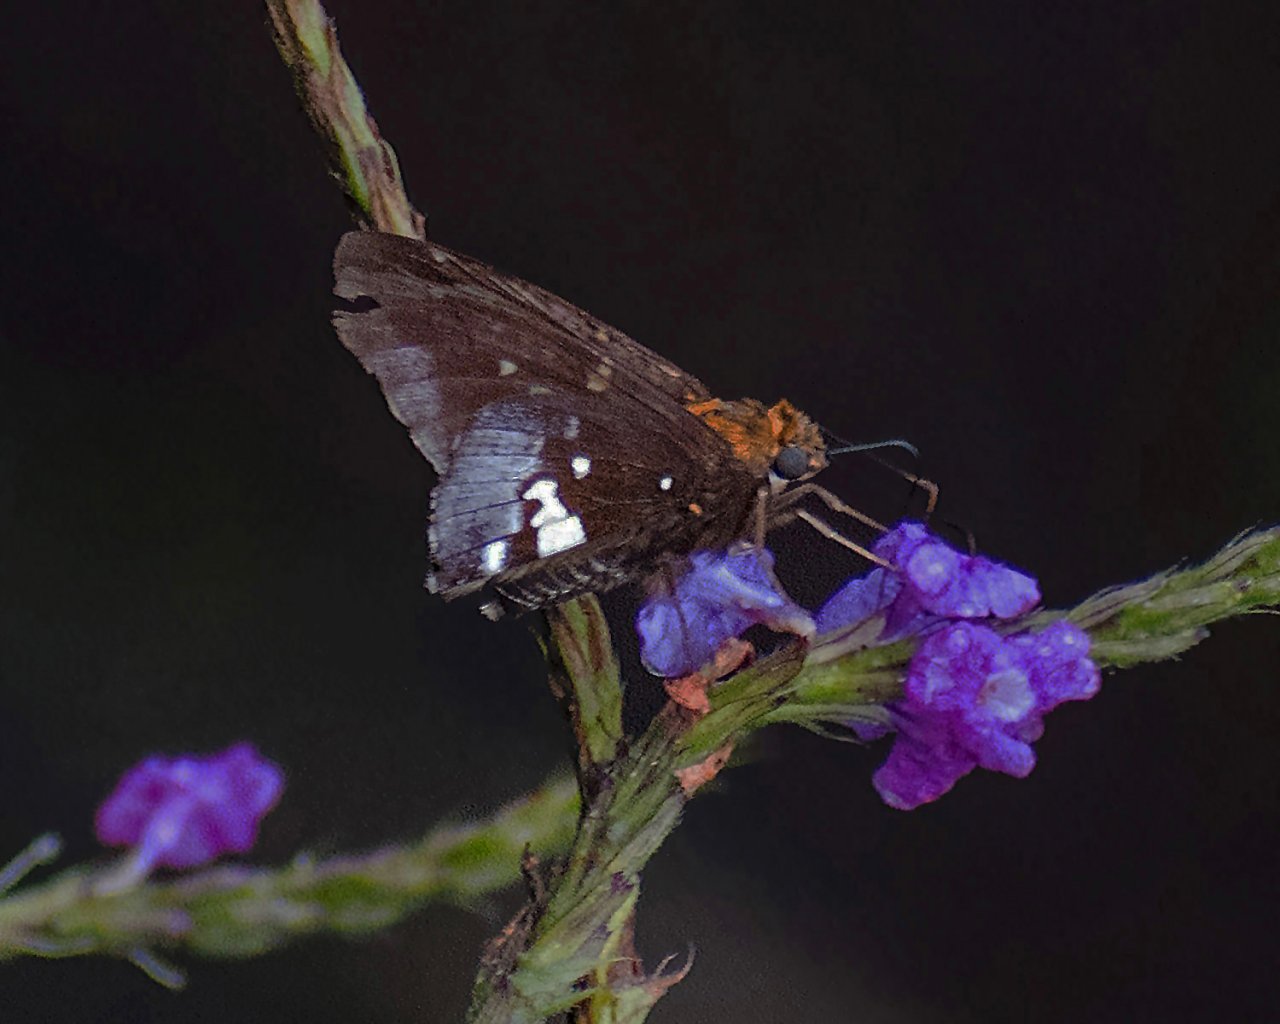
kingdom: Animalia
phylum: Arthropoda
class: Insecta
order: Lepidoptera
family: Hesperiidae
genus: Epargyreus
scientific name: Epargyreus exadeus
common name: Broken Silverdrop
